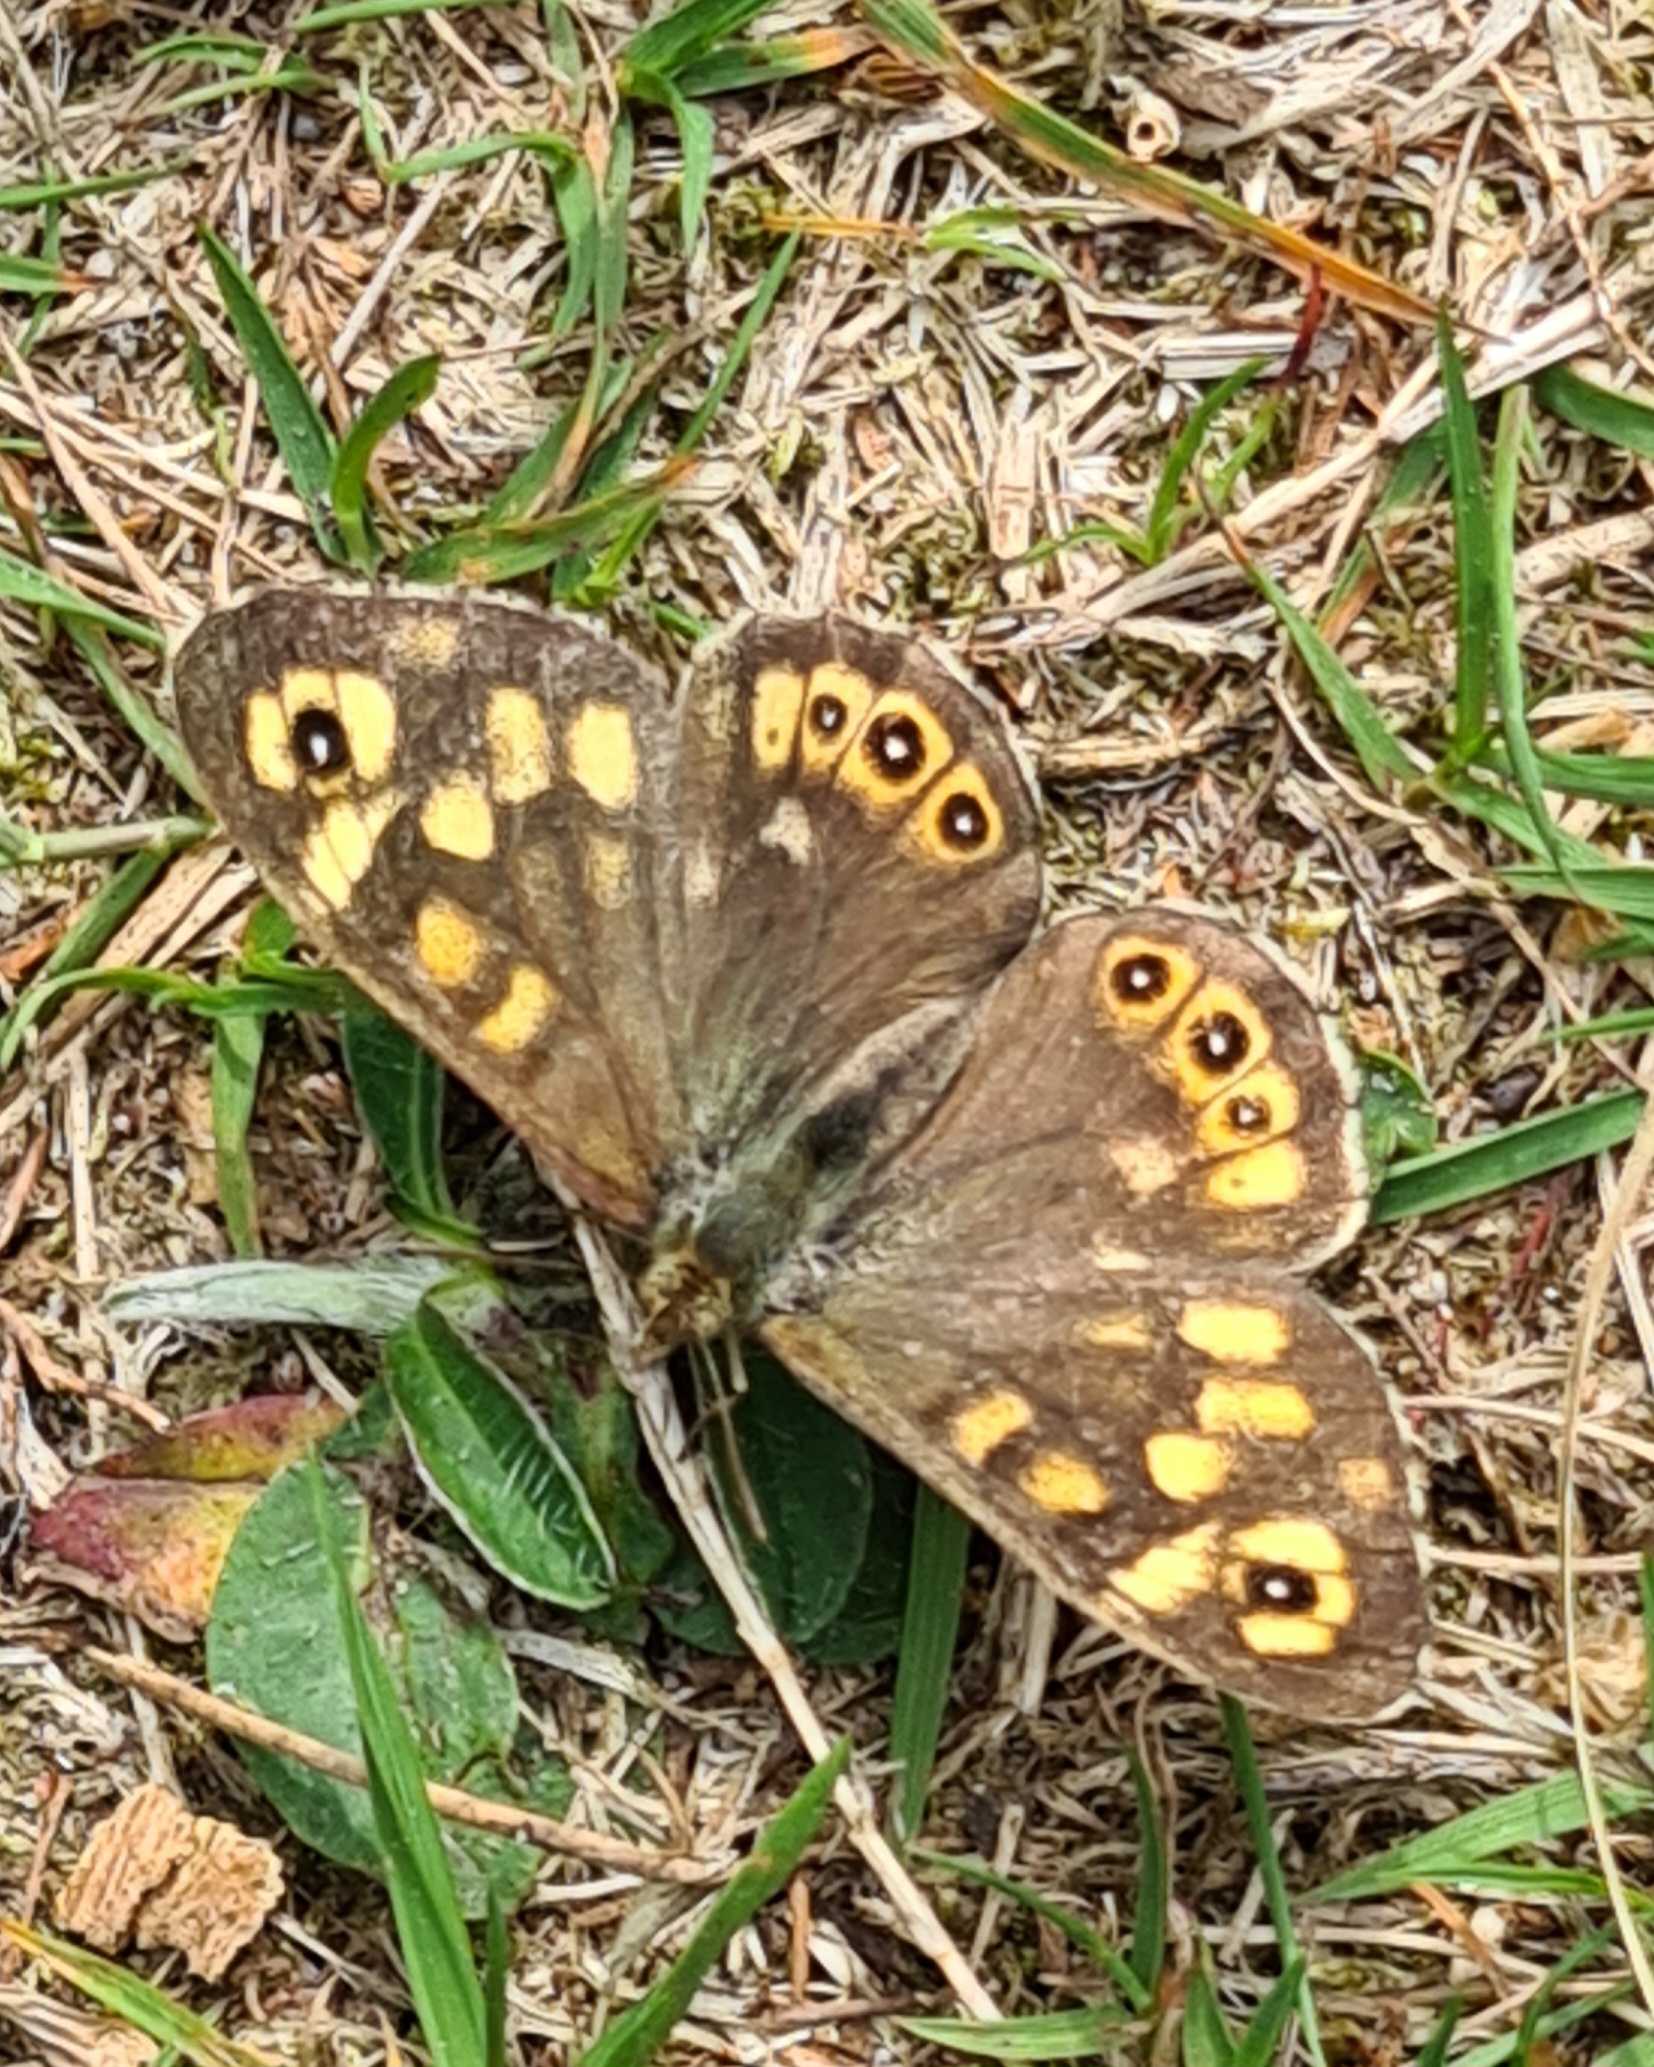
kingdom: Animalia
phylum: Arthropoda
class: Insecta
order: Lepidoptera
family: Nymphalidae
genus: Pararge
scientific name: Pararge aegeria
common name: Skovrandøje
